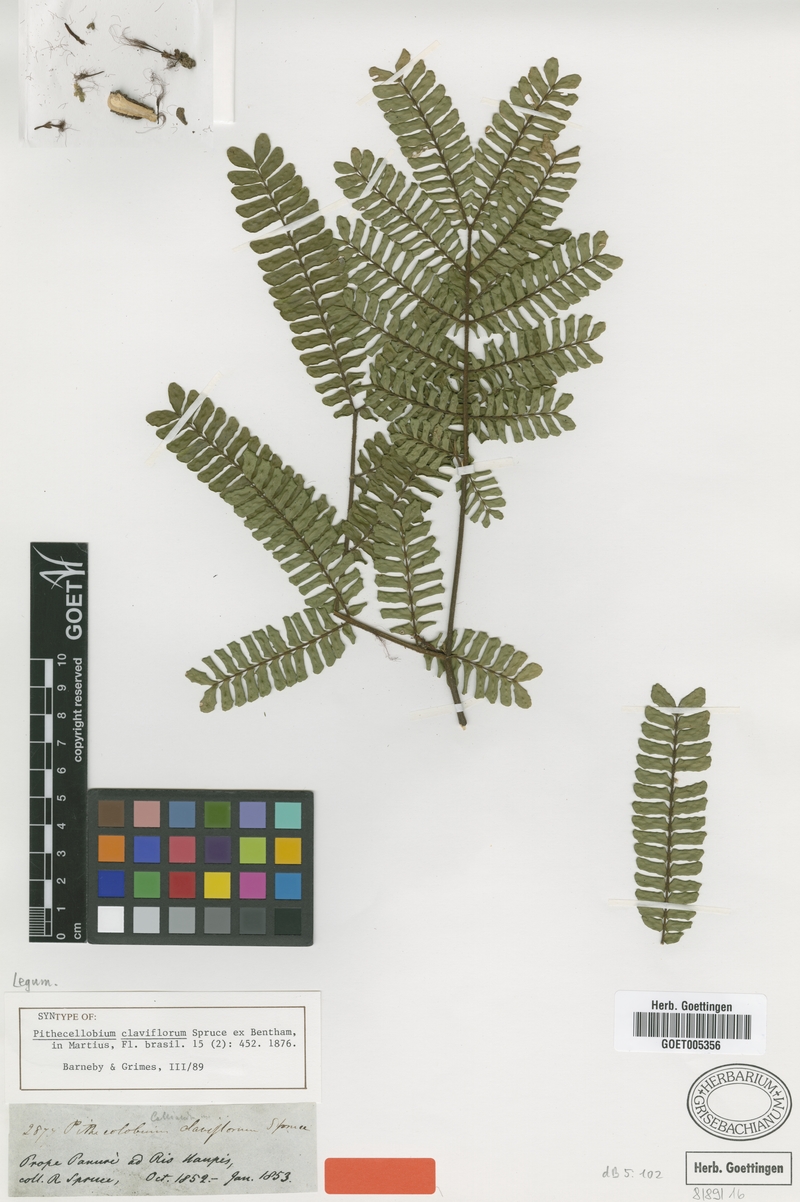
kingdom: Plantae
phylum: Tracheophyta
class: Magnoliopsida
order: Fabales
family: Fabaceae
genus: Zygia
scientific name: Zygia cauliflora
